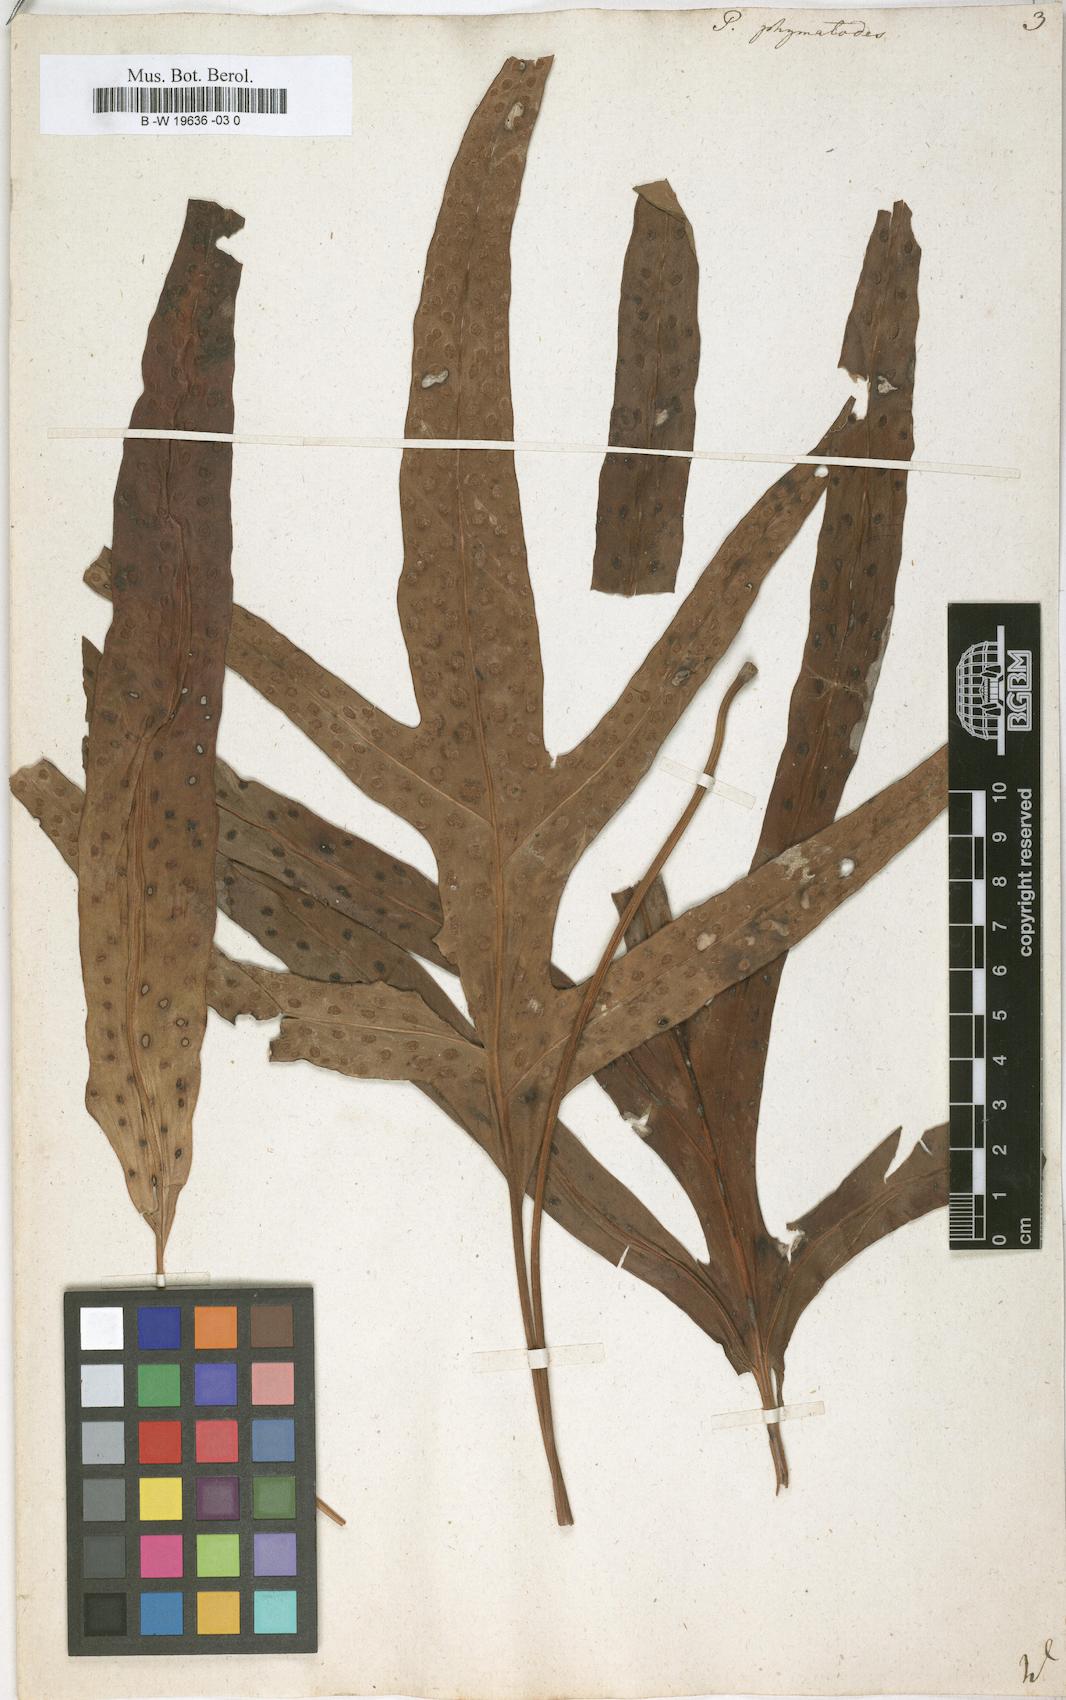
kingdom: Plantae
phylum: Tracheophyta
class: Polypodiopsida
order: Polypodiales
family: Polypodiaceae
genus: Microsorum
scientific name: Microsorum scolopendria
